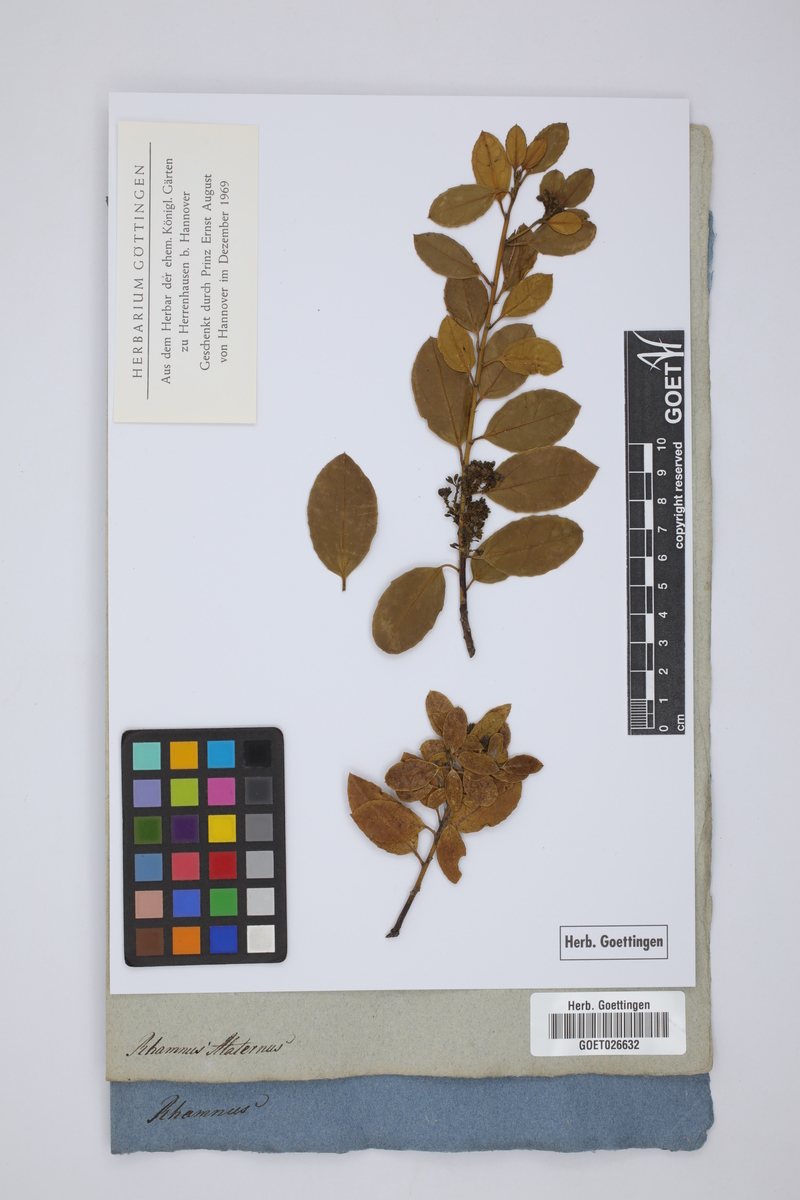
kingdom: Plantae
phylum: Tracheophyta
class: Magnoliopsida
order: Rosales
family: Rhamnaceae
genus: Rhamnus
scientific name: Rhamnus alaternus
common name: Mediterranean buckthorn
